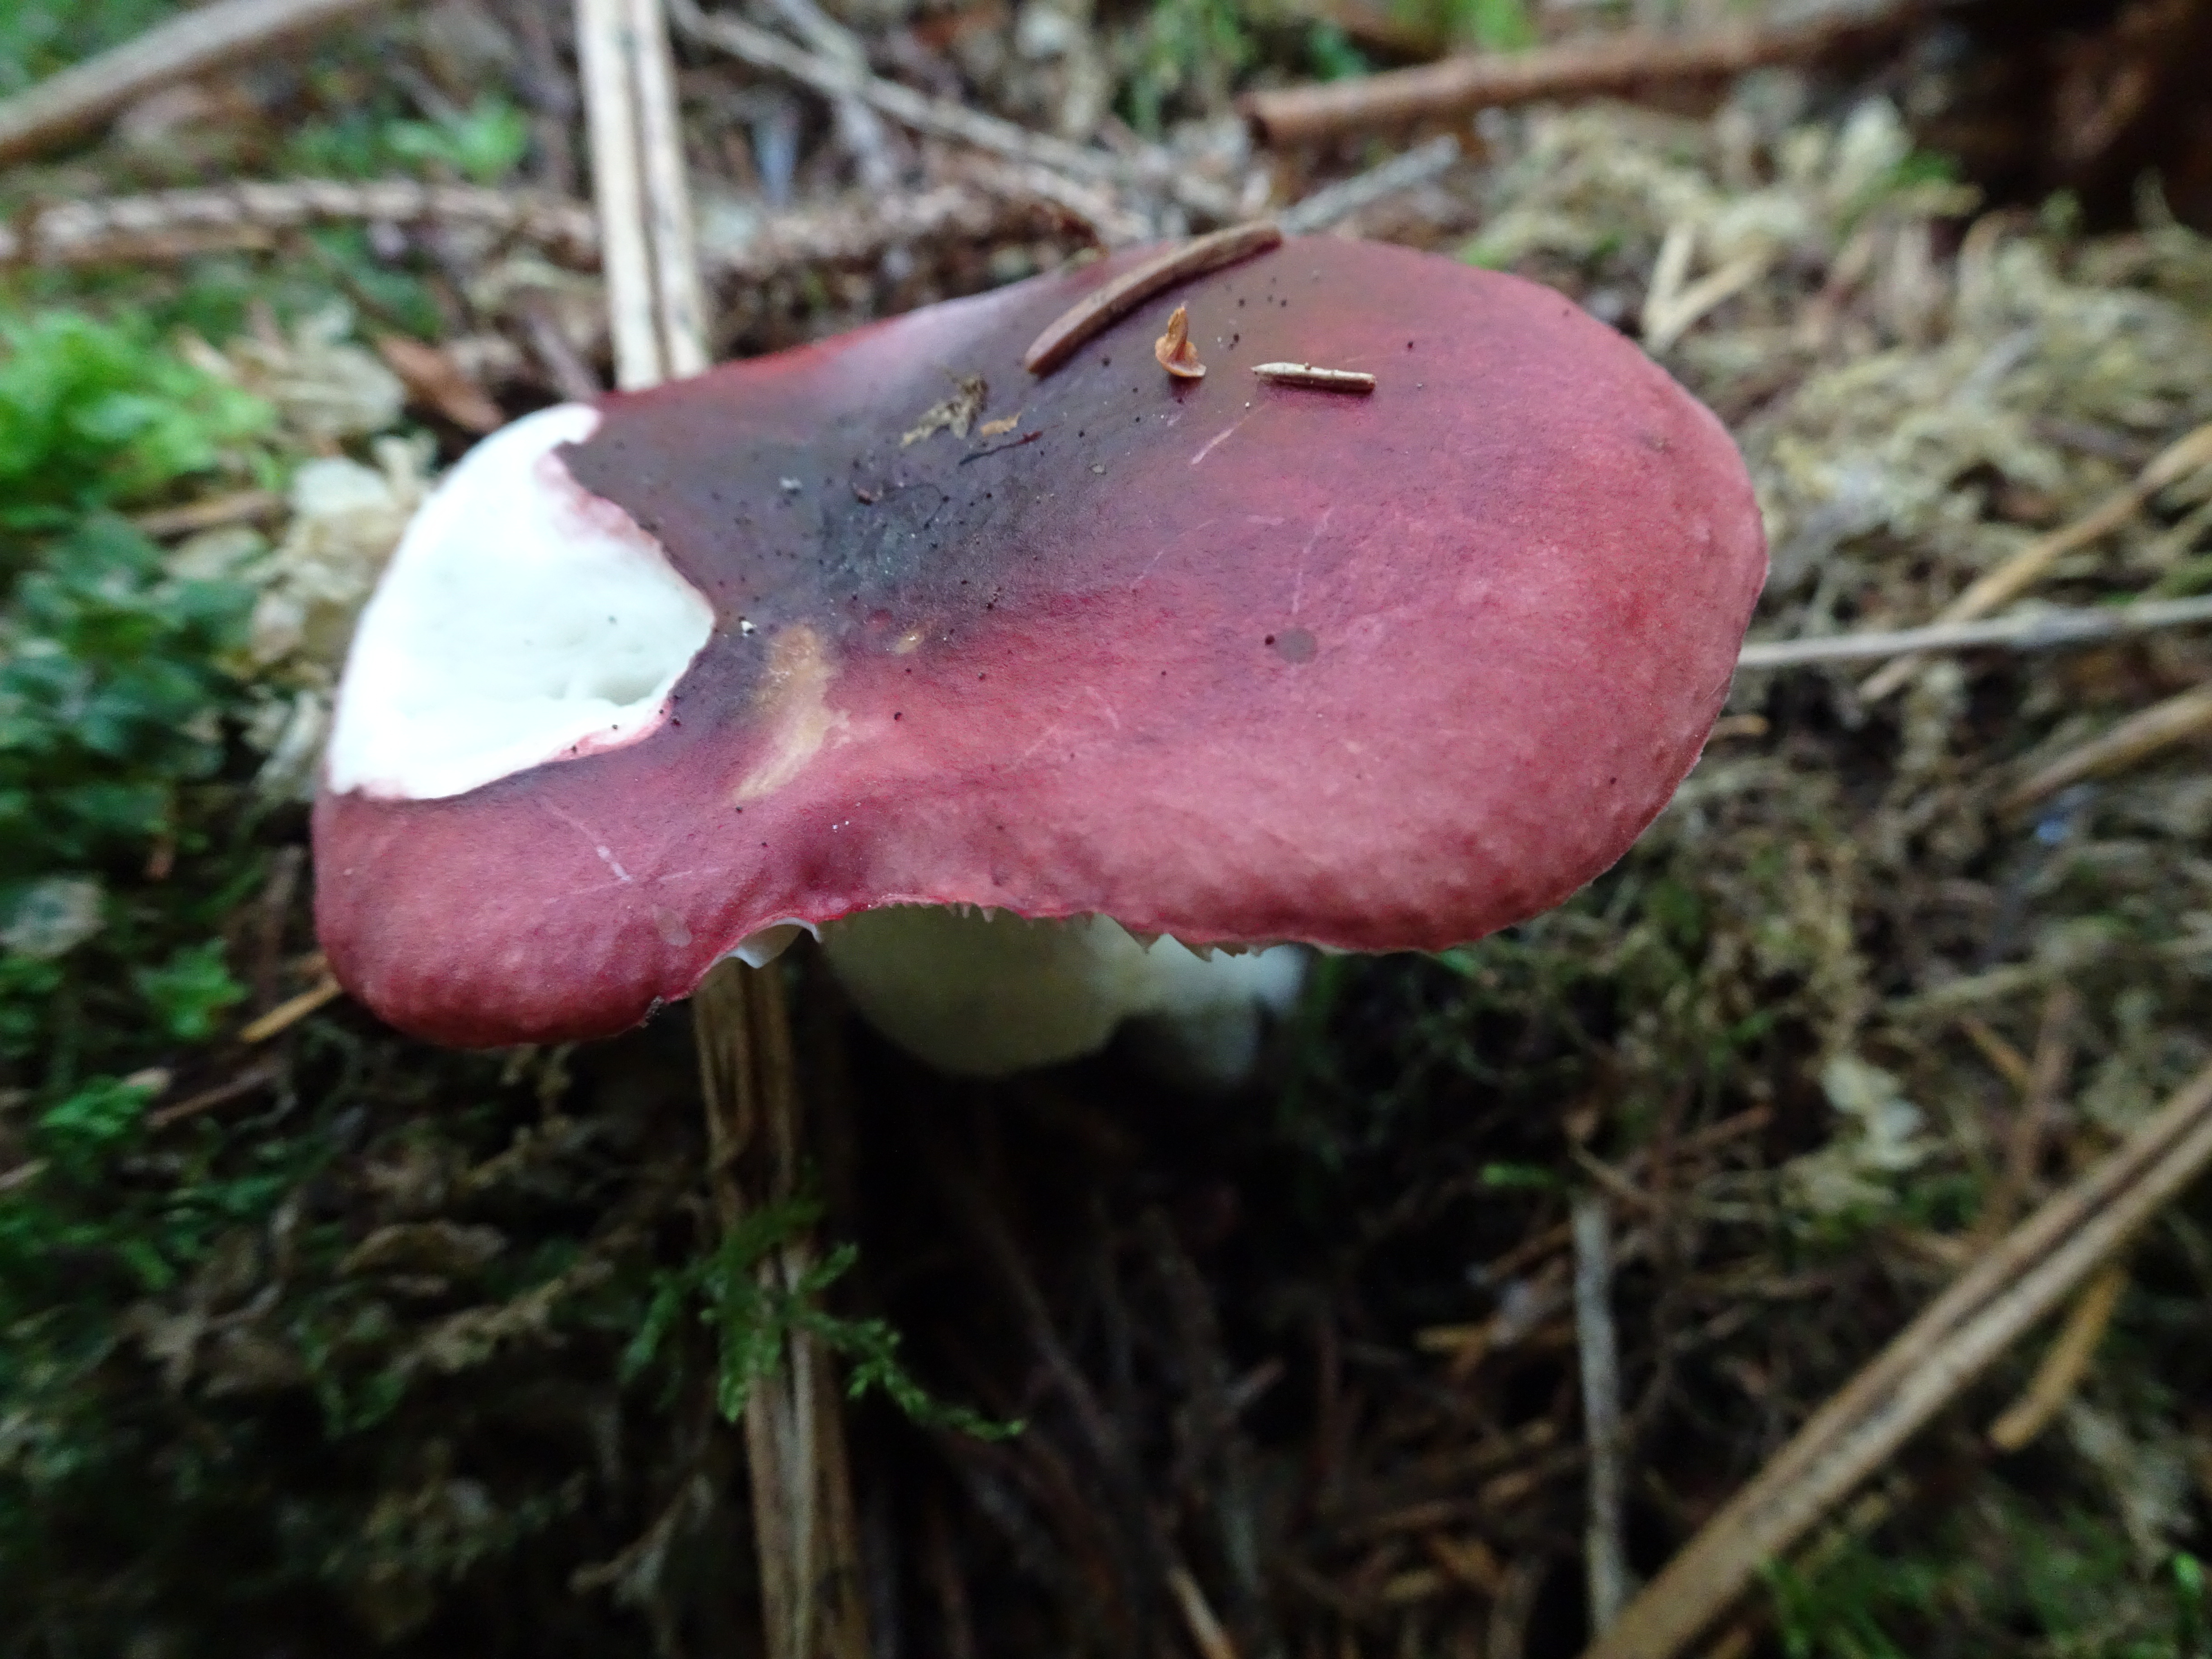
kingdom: Fungi
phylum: Basidiomycota
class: Agaricomycetes
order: Russulales
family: Russulaceae
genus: Russula
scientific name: Russula
